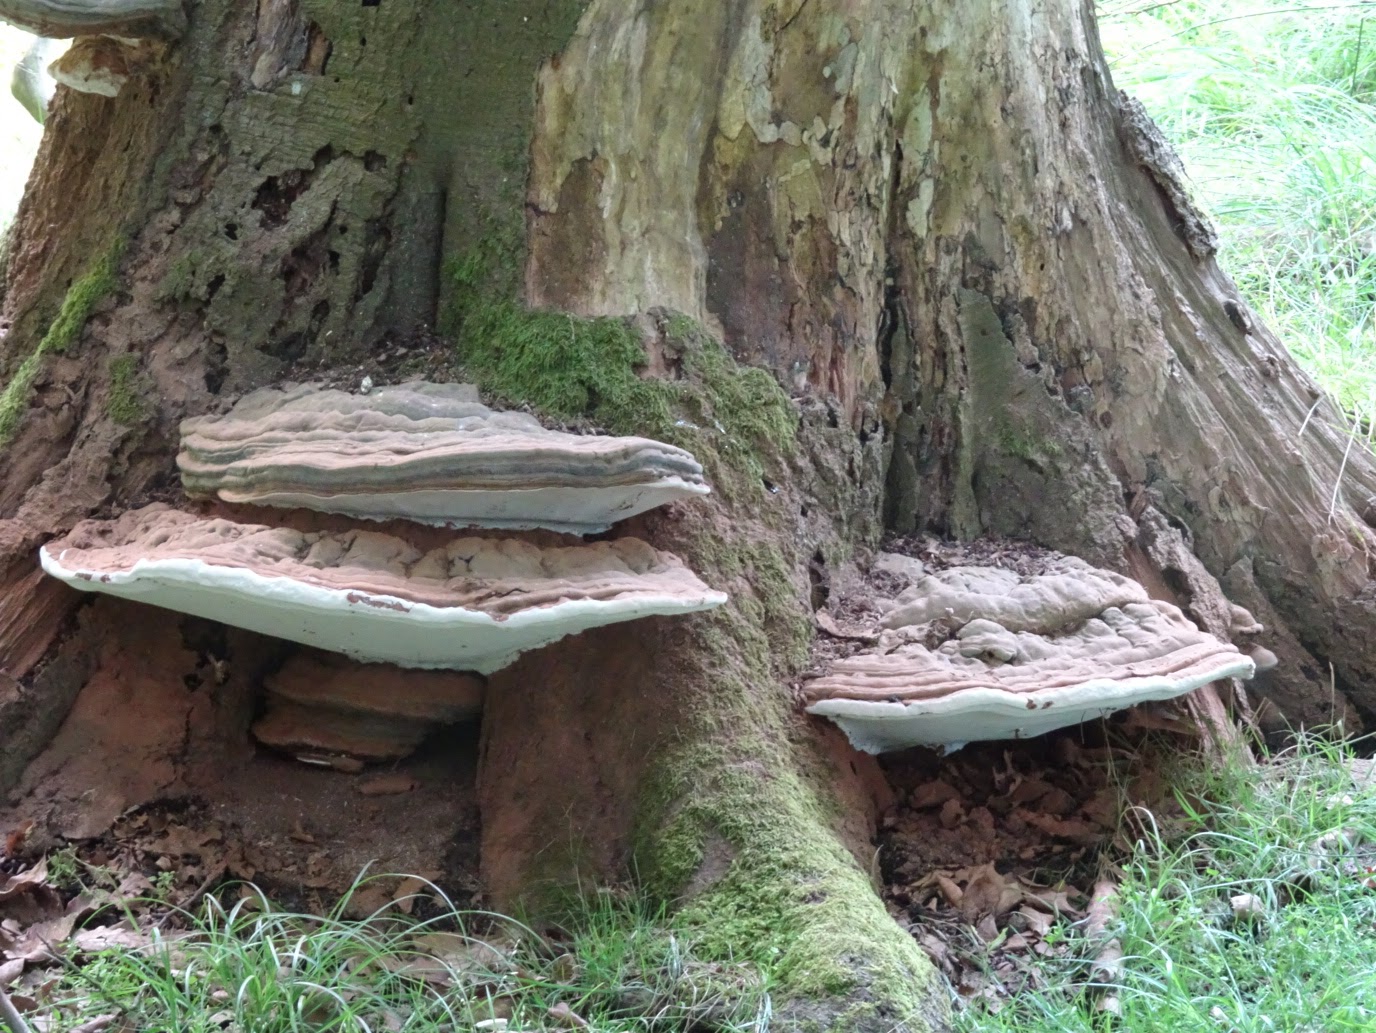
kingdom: Fungi
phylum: Basidiomycota
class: Agaricomycetes
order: Polyporales
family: Polyporaceae
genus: Ganoderma
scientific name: Ganoderma pfeifferi
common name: kobberrød lakporesvamp
